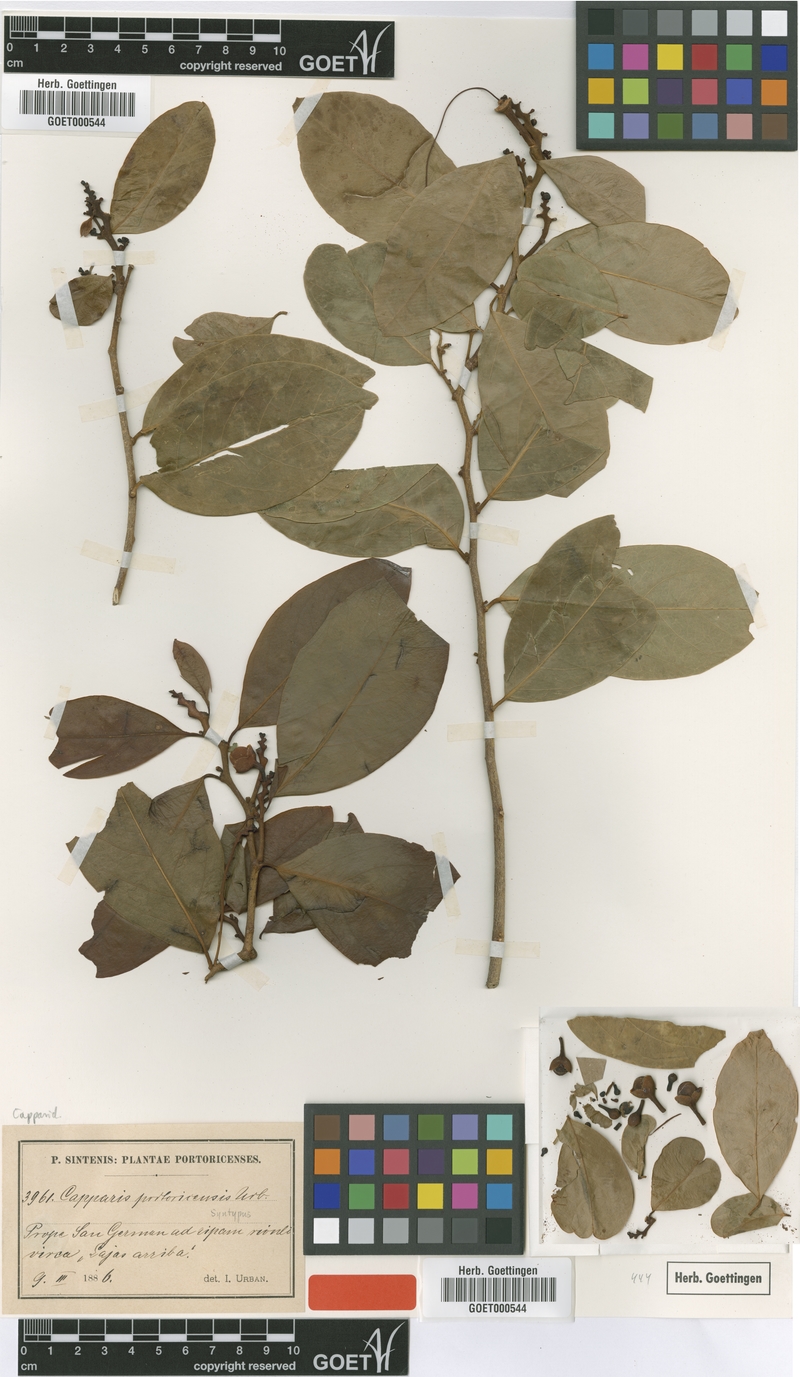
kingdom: Plantae
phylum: Tracheophyta
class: Magnoliopsida
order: Brassicales
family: Capparaceae
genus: Cynophalla
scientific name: Cynophalla amplissima
